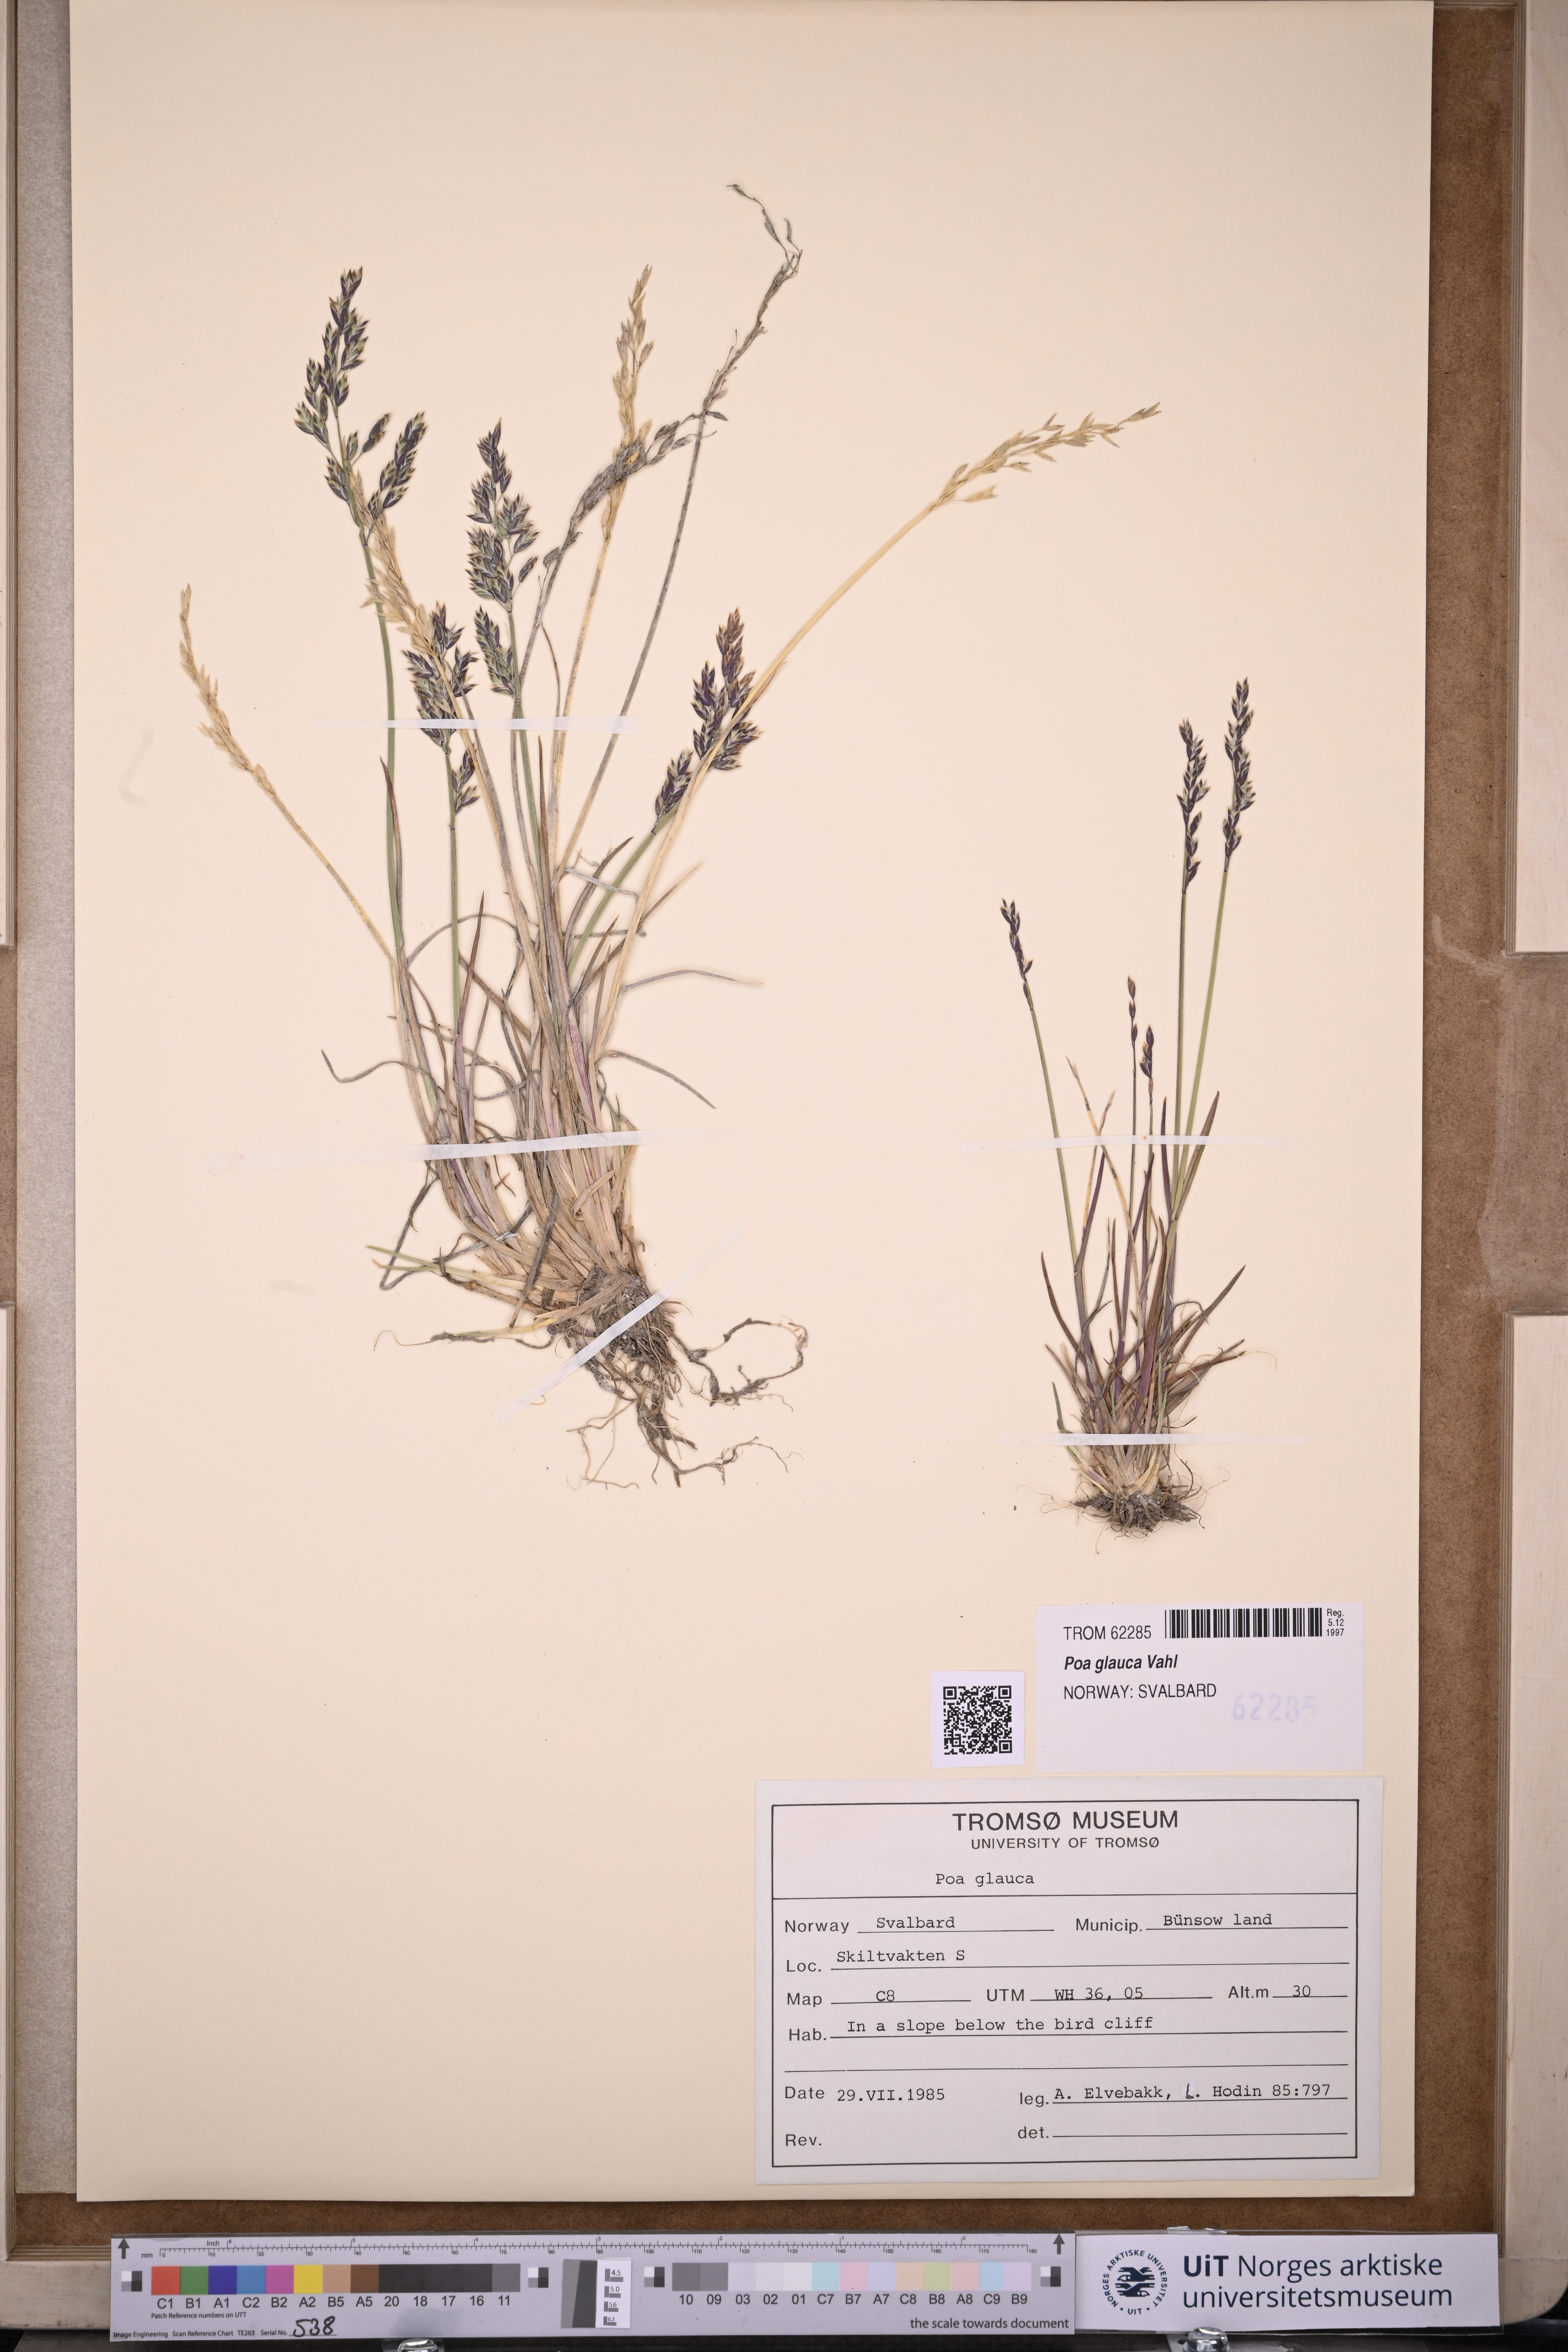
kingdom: Plantae
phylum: Tracheophyta
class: Liliopsida
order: Poales
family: Poaceae
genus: Poa
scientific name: Poa glauca
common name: Glaucous bluegrass
